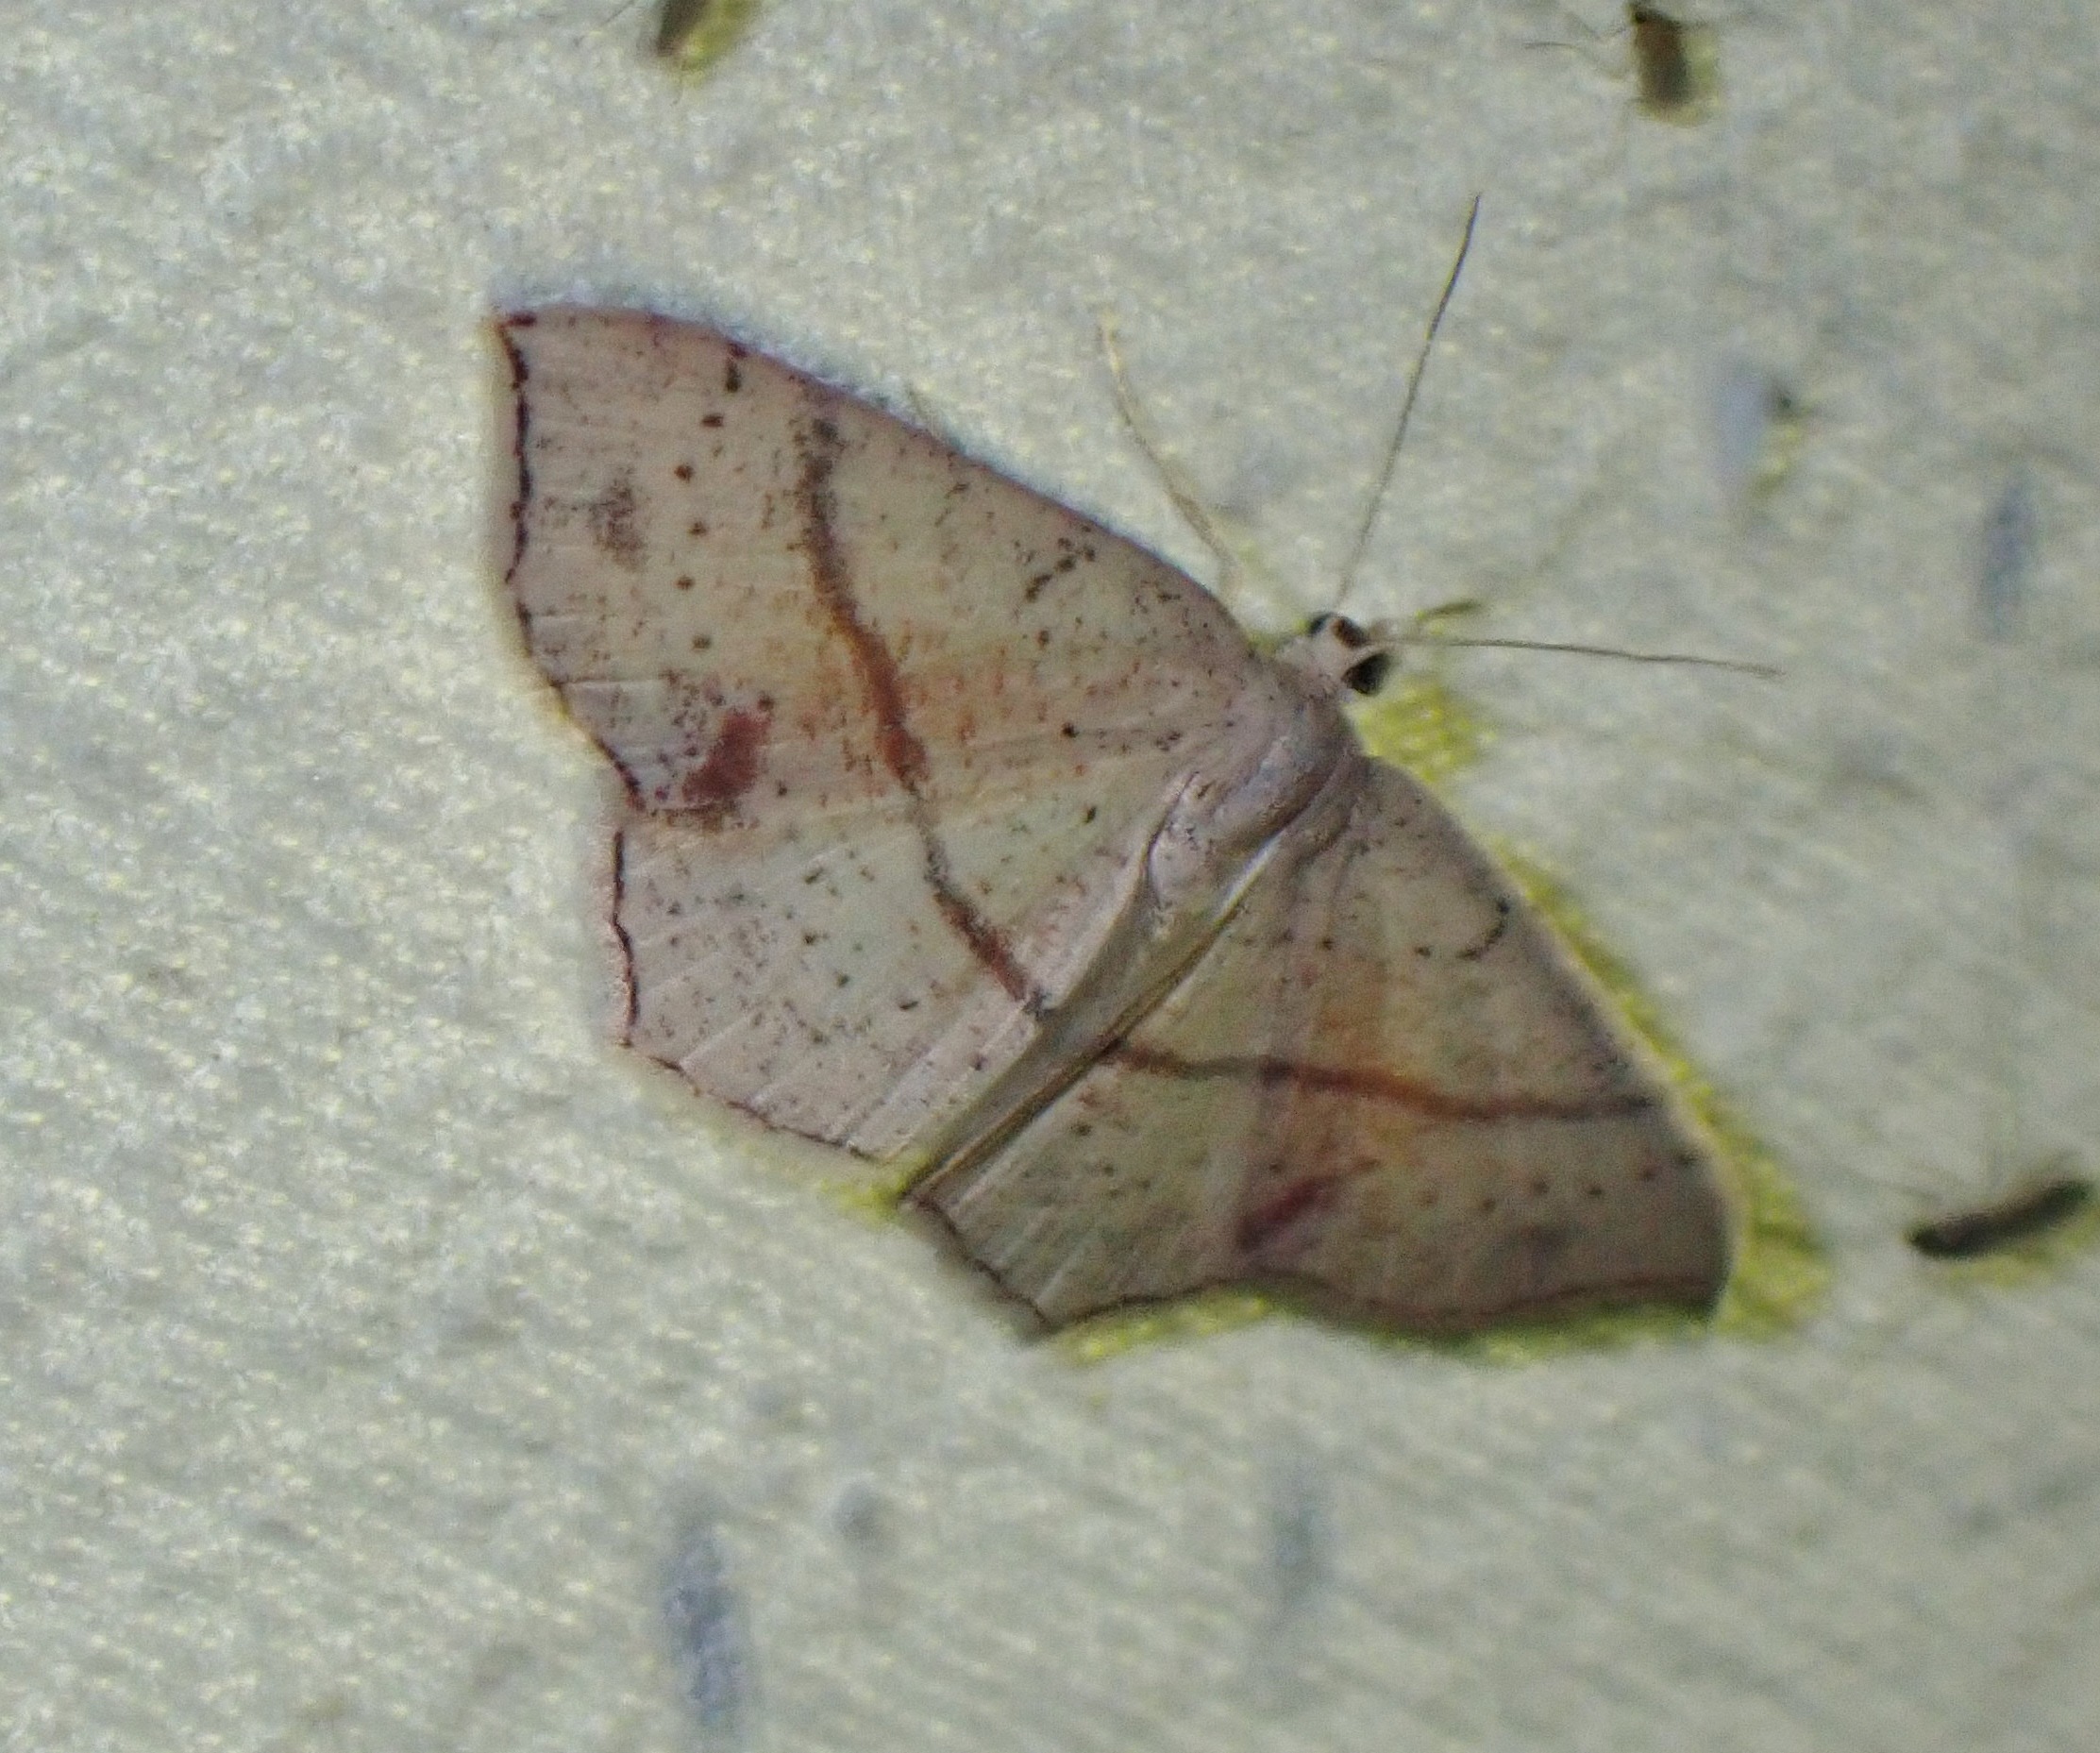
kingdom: Animalia
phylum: Arthropoda
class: Insecta
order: Lepidoptera
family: Geometridae
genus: Cyclophora
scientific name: Cyclophora punctaria
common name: Ege-bæltemåler
